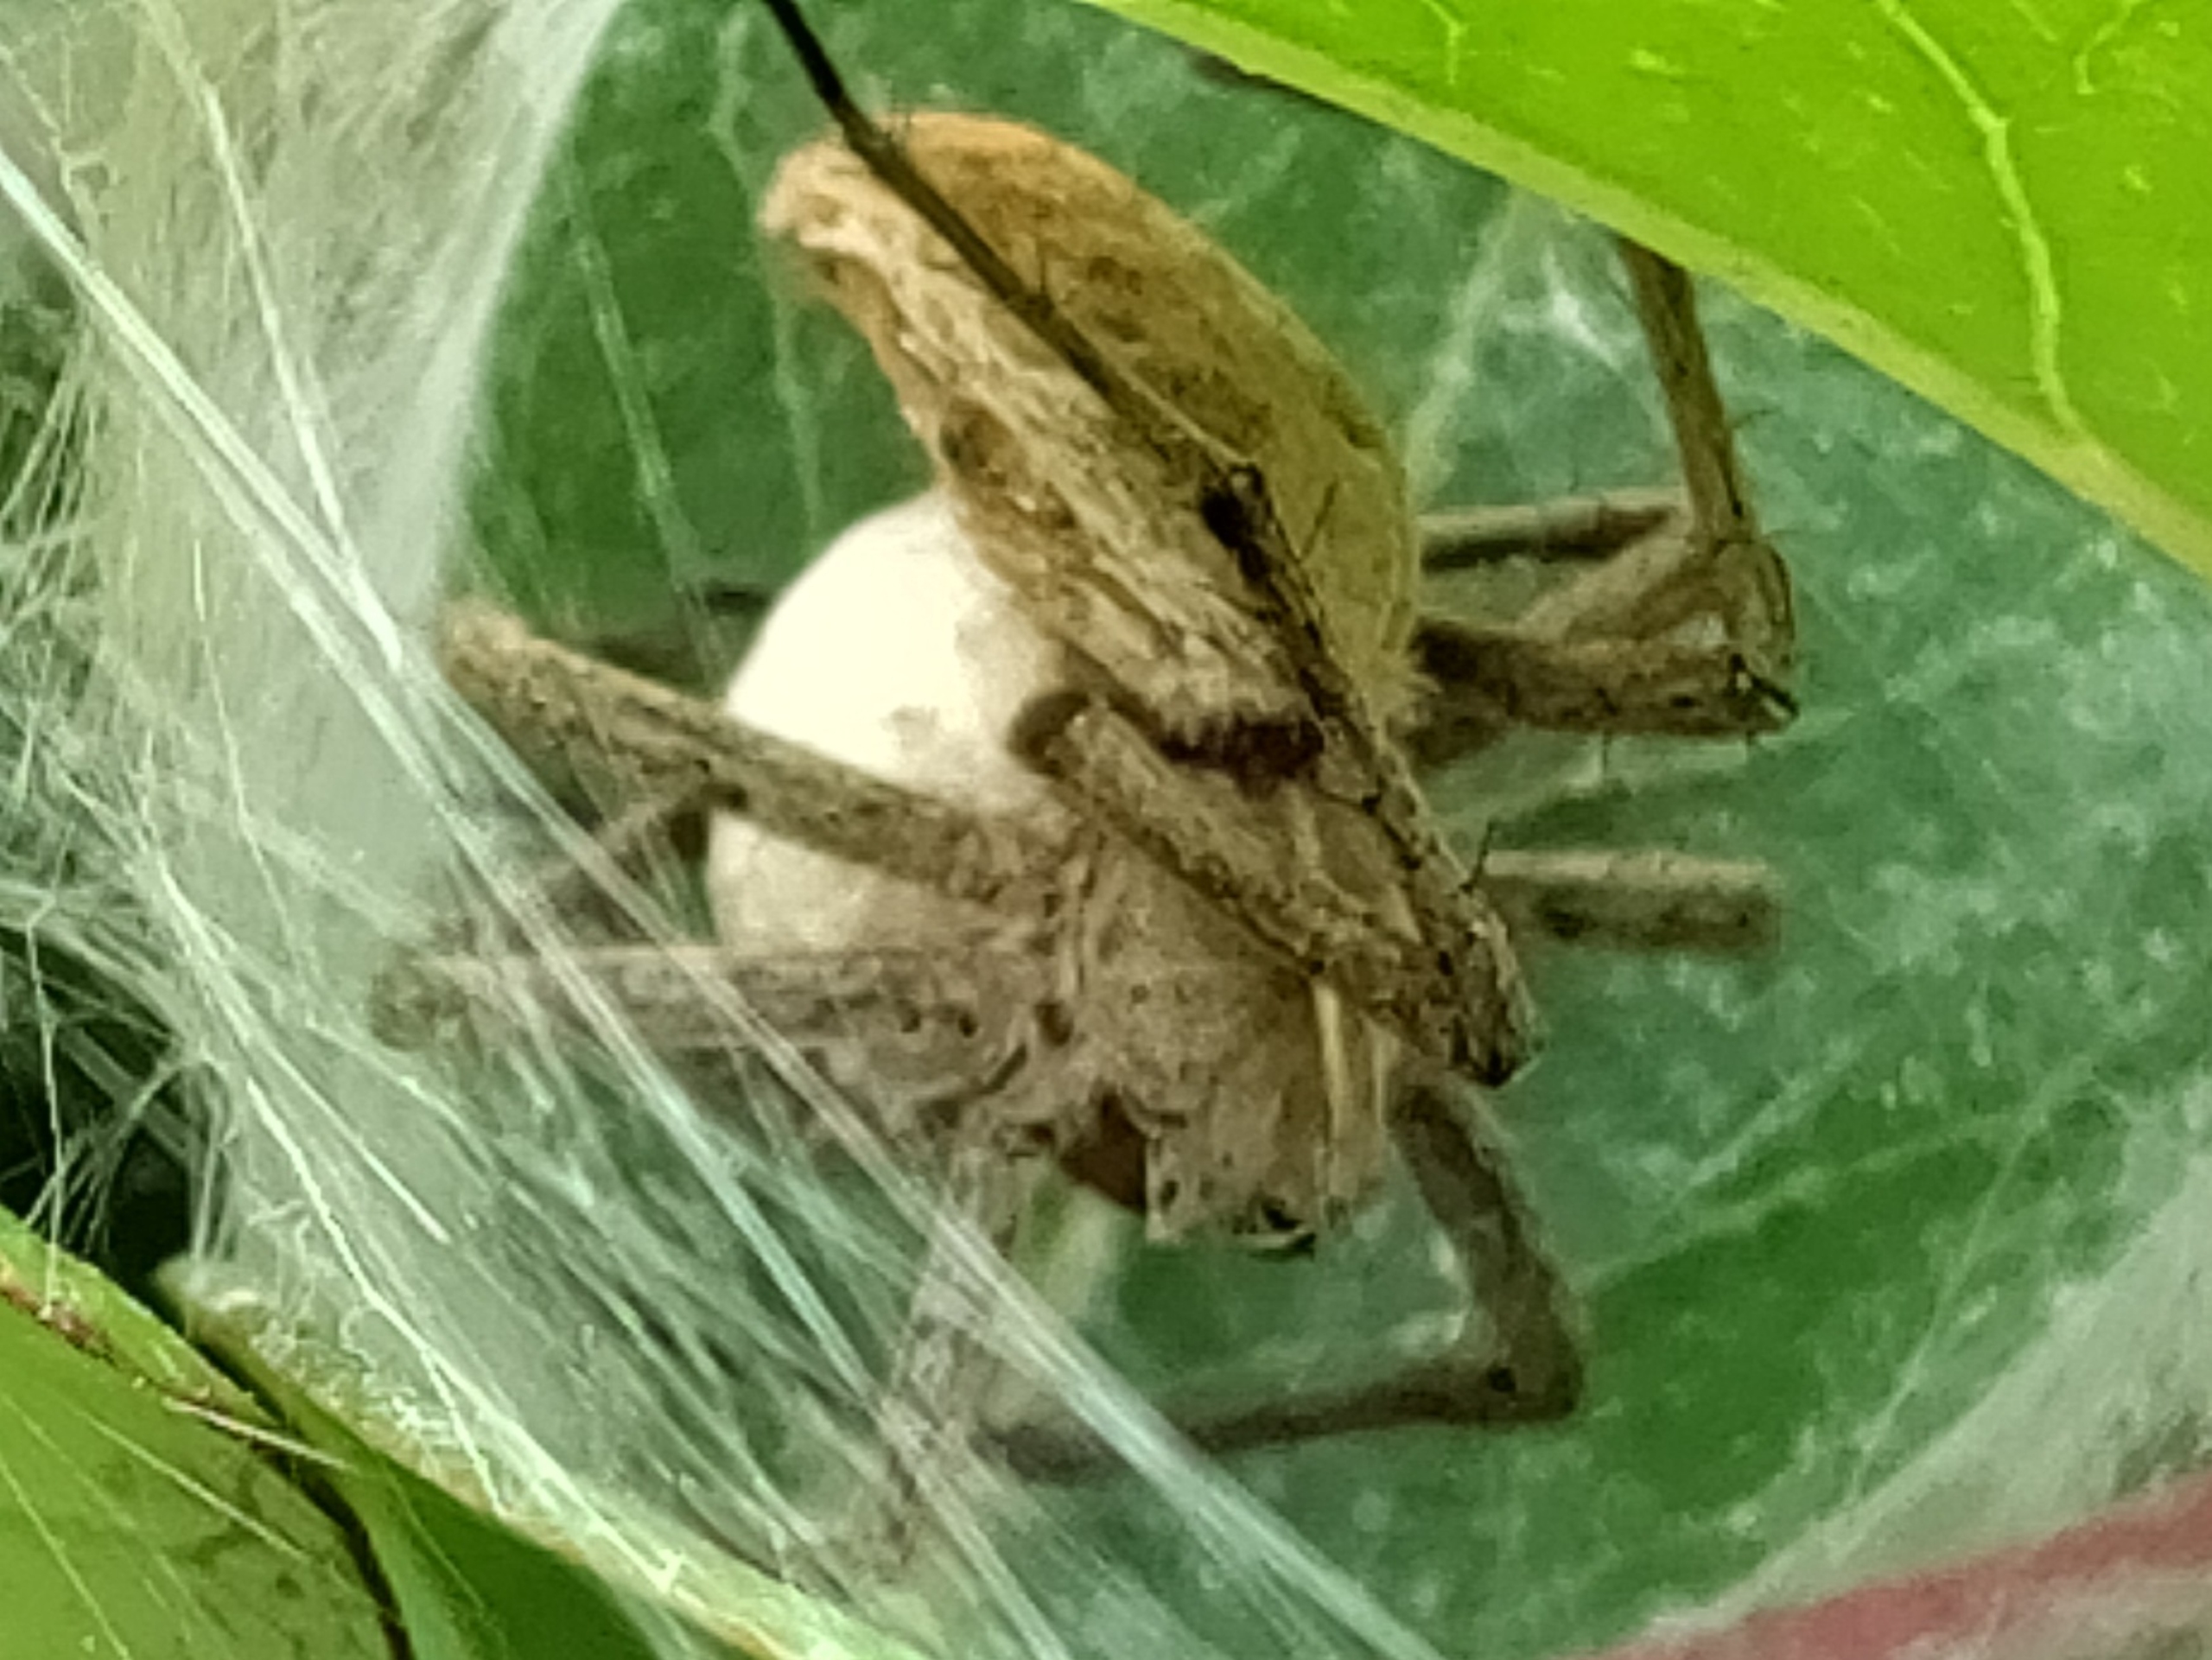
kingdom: Animalia
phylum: Arthropoda
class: Arachnida
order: Araneae
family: Pisauridae
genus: Pisaura
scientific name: Pisaura mirabilis
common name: Almindelig rovedderkop
